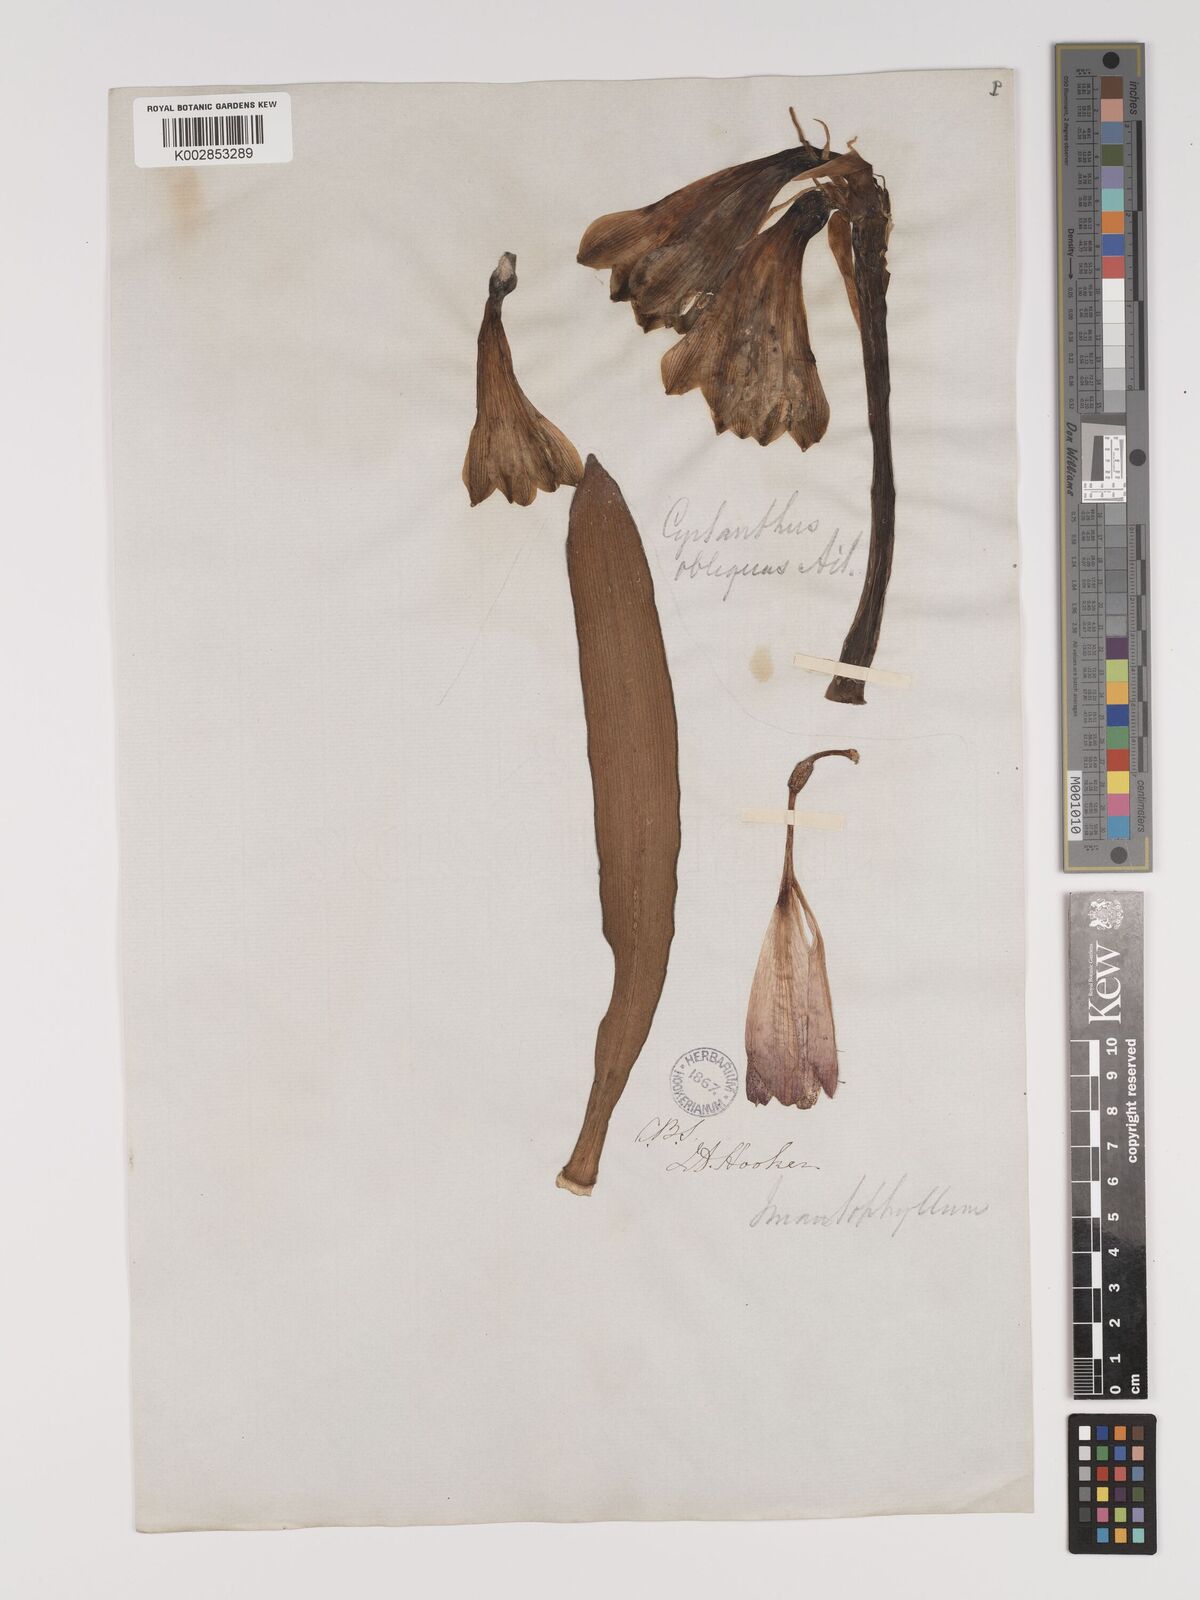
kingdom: Plantae
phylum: Tracheophyta
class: Liliopsida
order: Asparagales
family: Amaryllidaceae
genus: Cyrtanthus
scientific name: Cyrtanthus obliquus
